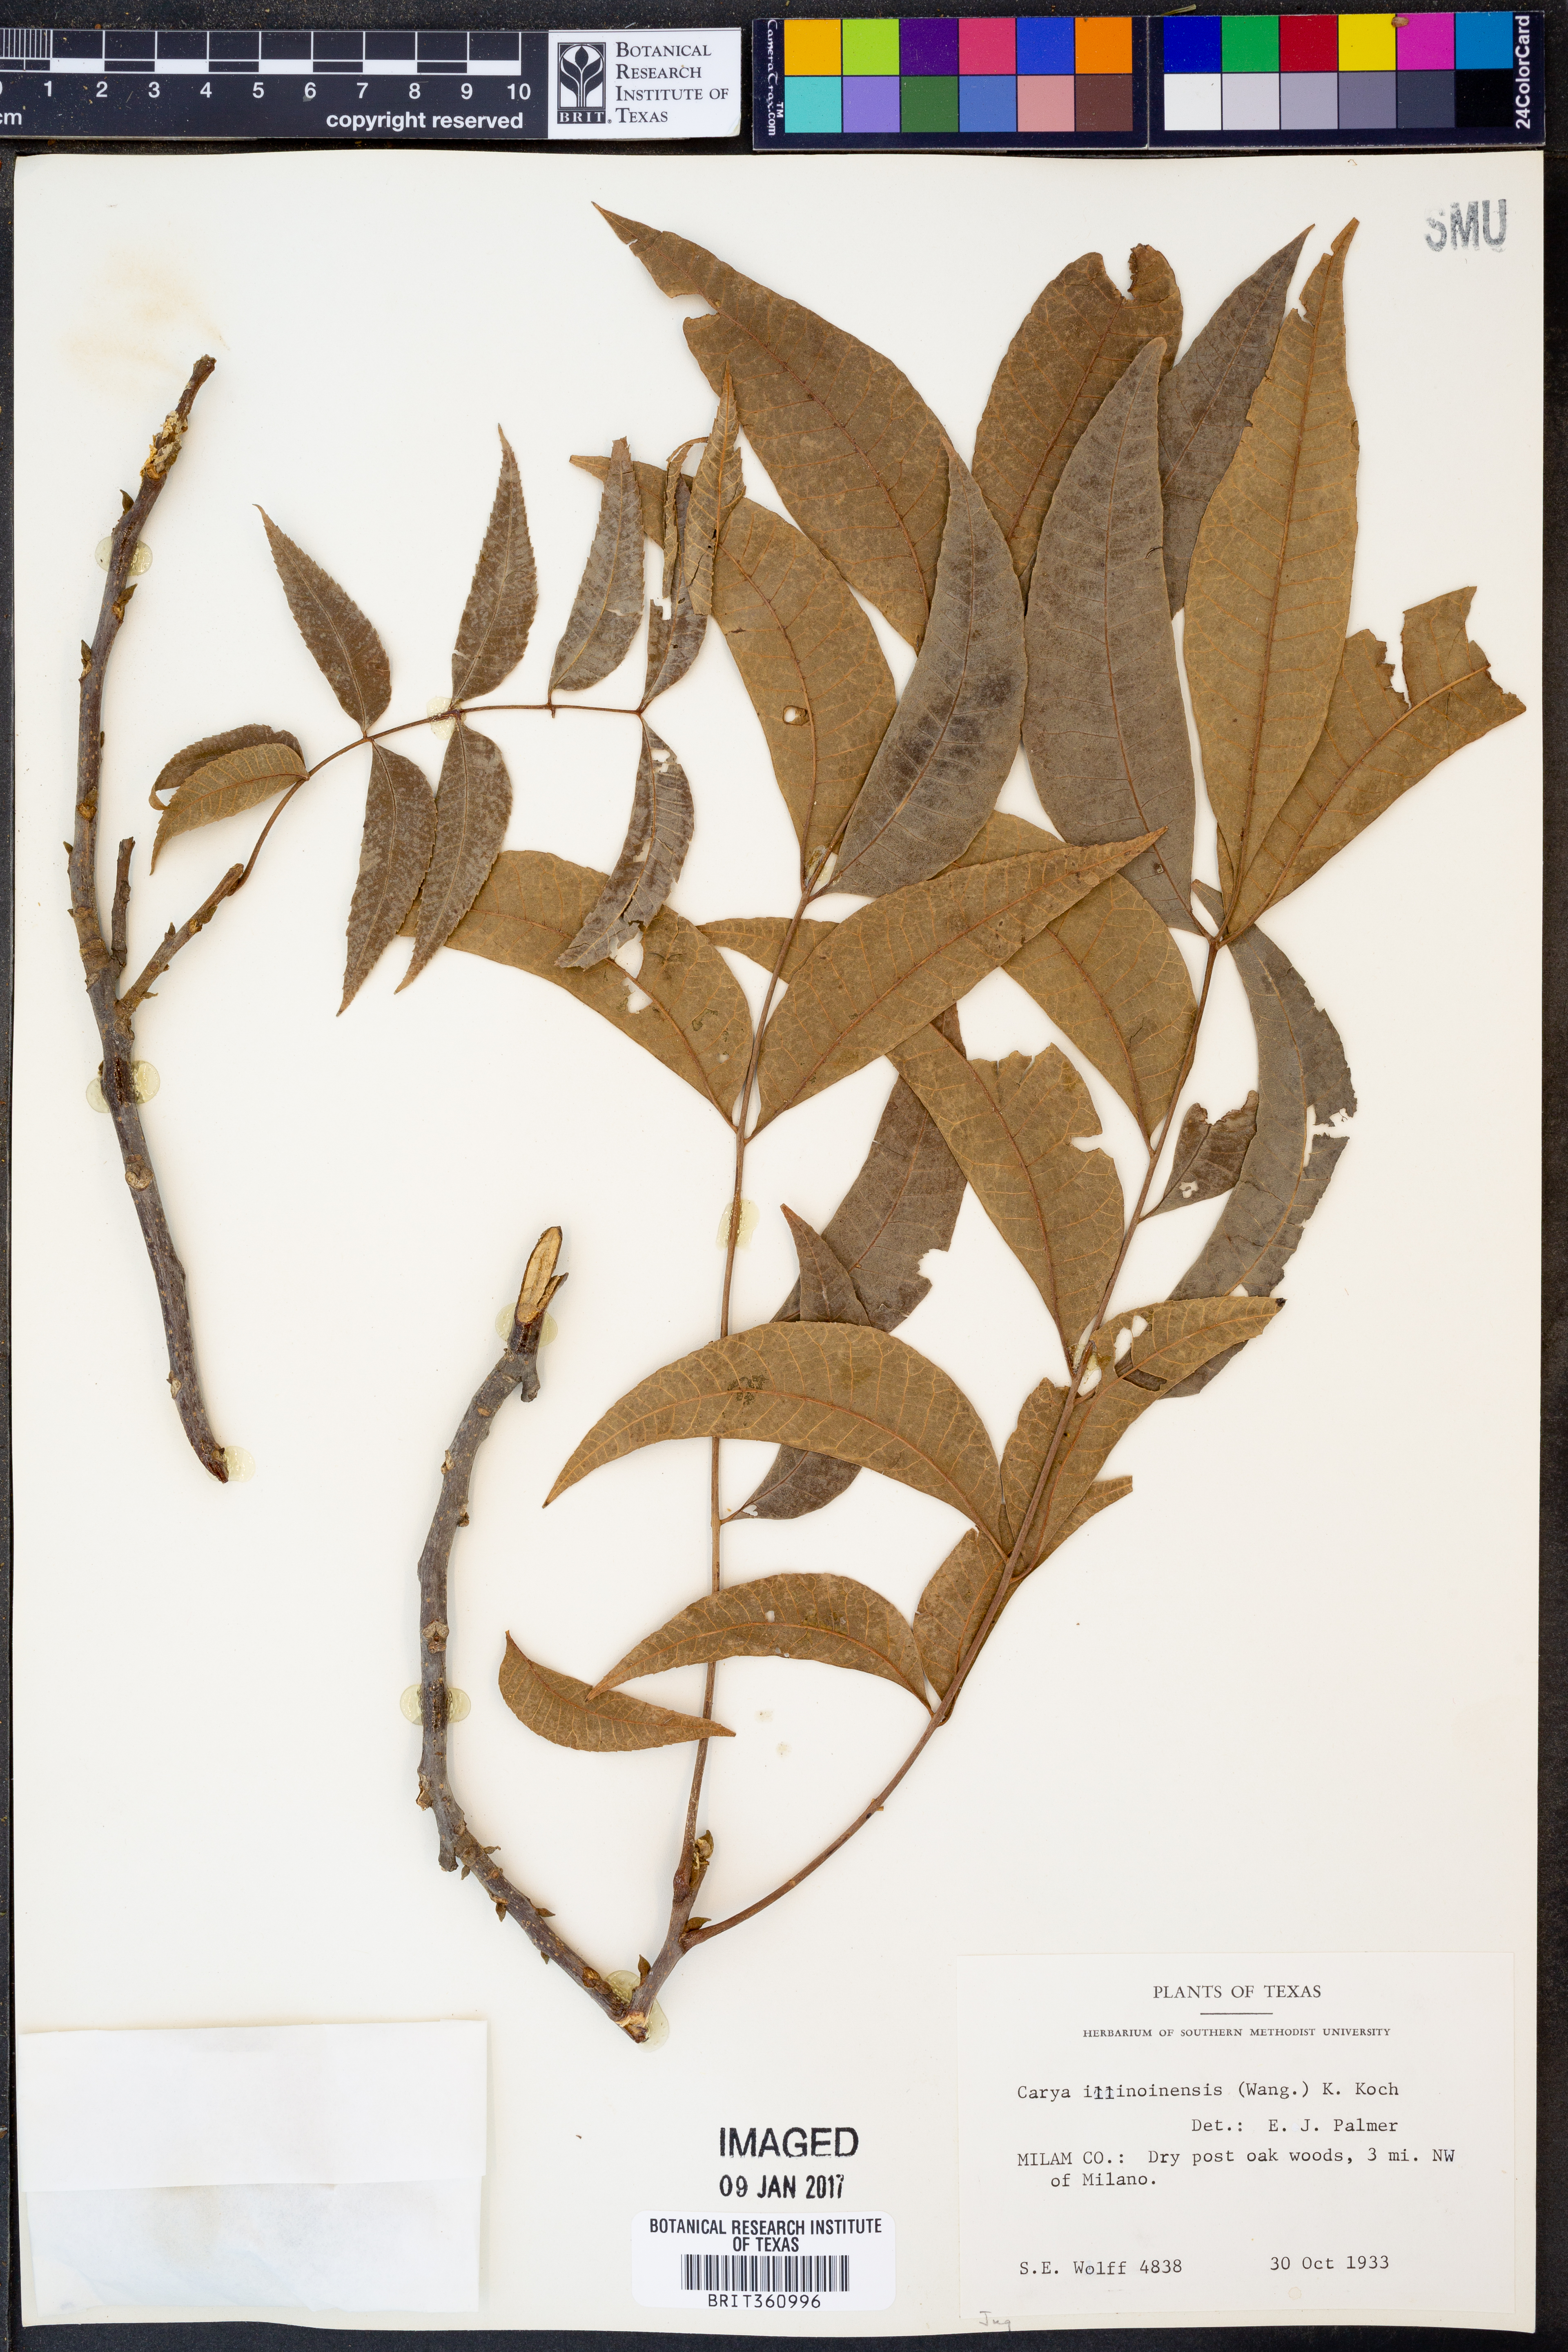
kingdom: Plantae
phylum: Tracheophyta
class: Magnoliopsida
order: Fagales
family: Juglandaceae
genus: Carya
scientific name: Carya illinoinensis
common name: Pecan
